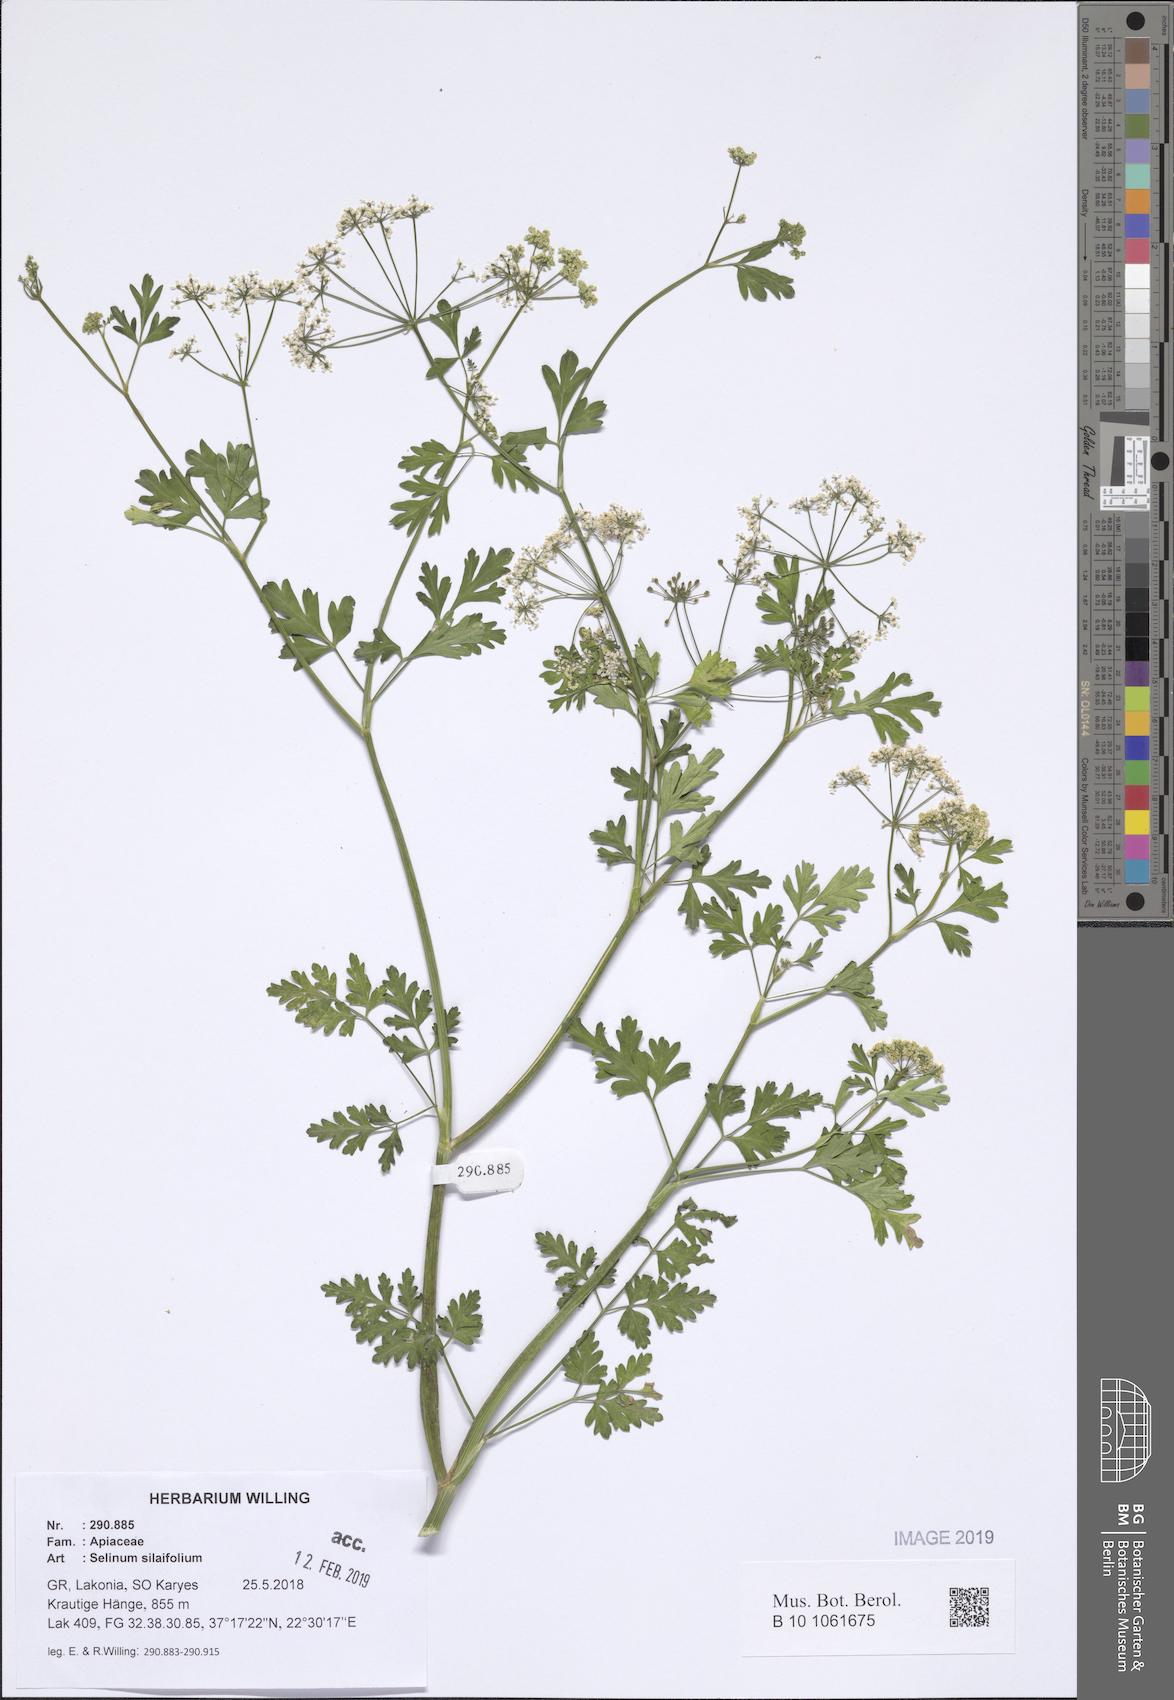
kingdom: Plantae
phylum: Tracheophyta
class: Magnoliopsida
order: Apiales
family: Apiaceae
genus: Katapsuxis
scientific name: Katapsuxis silaifolia
